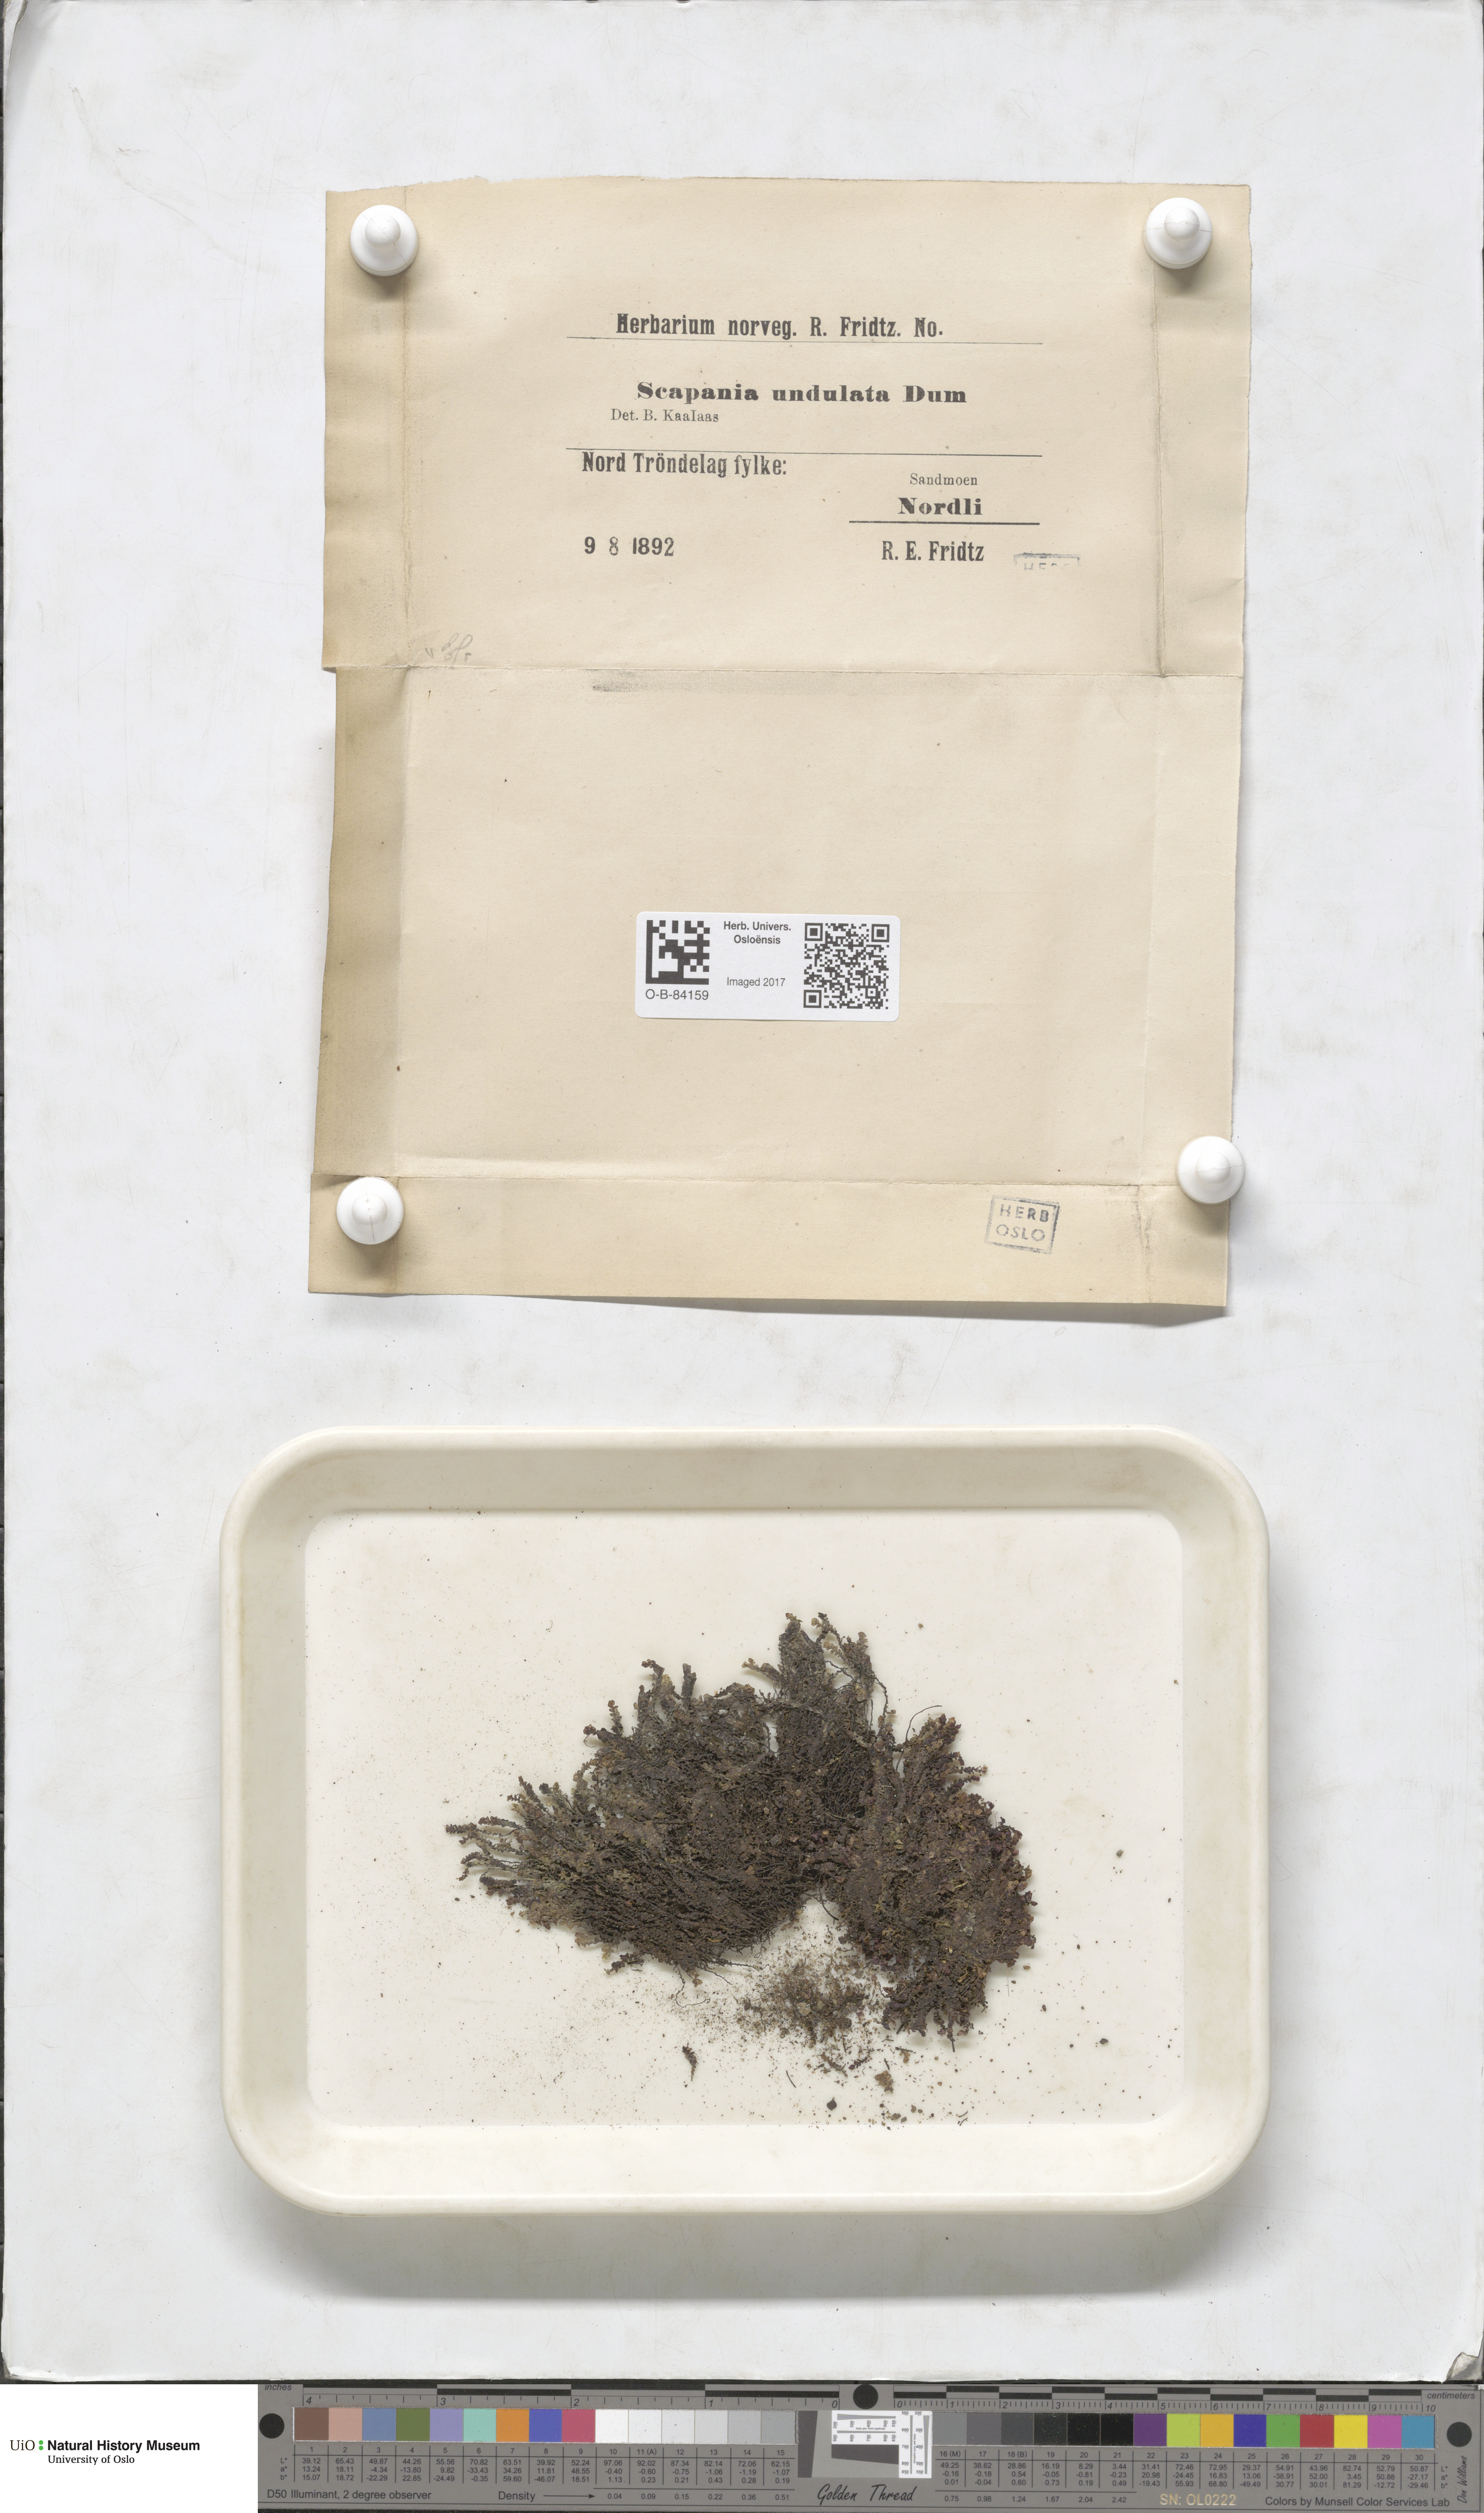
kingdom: Plantae
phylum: Marchantiophyta
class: Jungermanniopsida
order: Jungermanniales
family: Scapaniaceae
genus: Scapania
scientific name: Scapania undulata
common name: Water earwort
